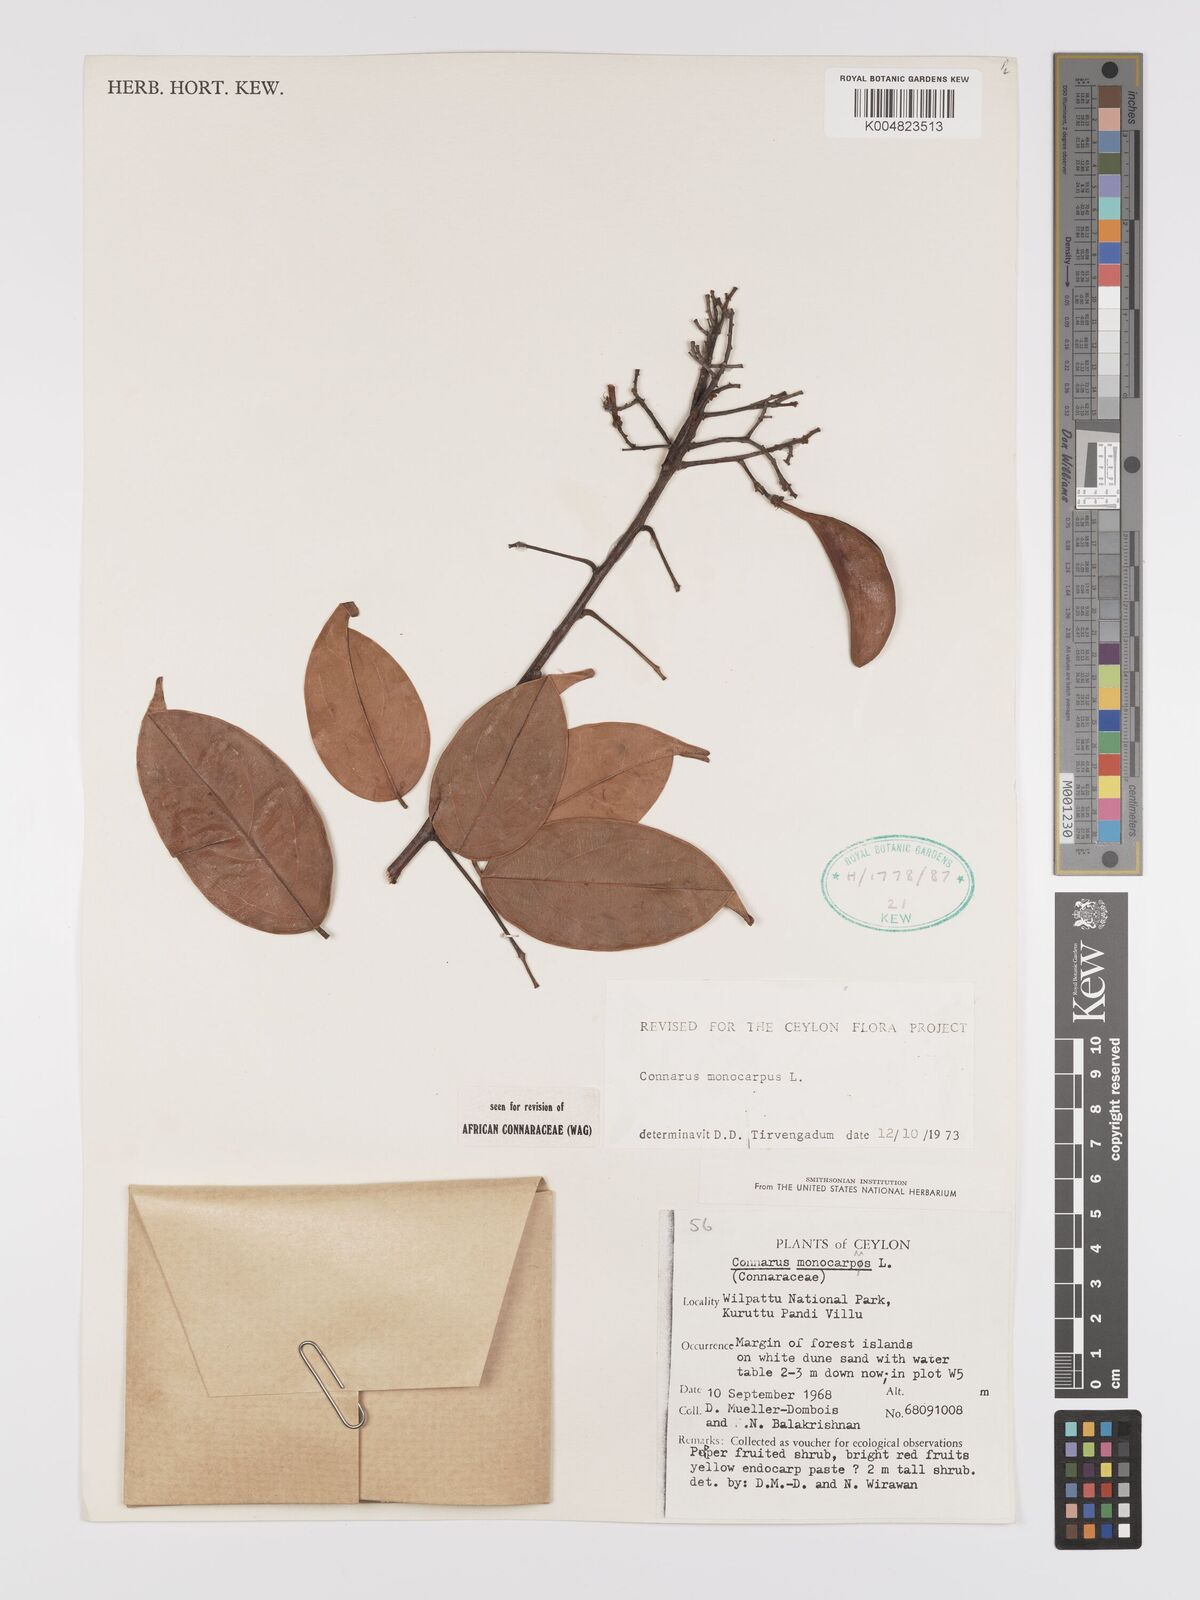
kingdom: Plantae
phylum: Tracheophyta
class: Magnoliopsida
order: Oxalidales
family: Connaraceae
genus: Connarus
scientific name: Connarus semidecandrus
